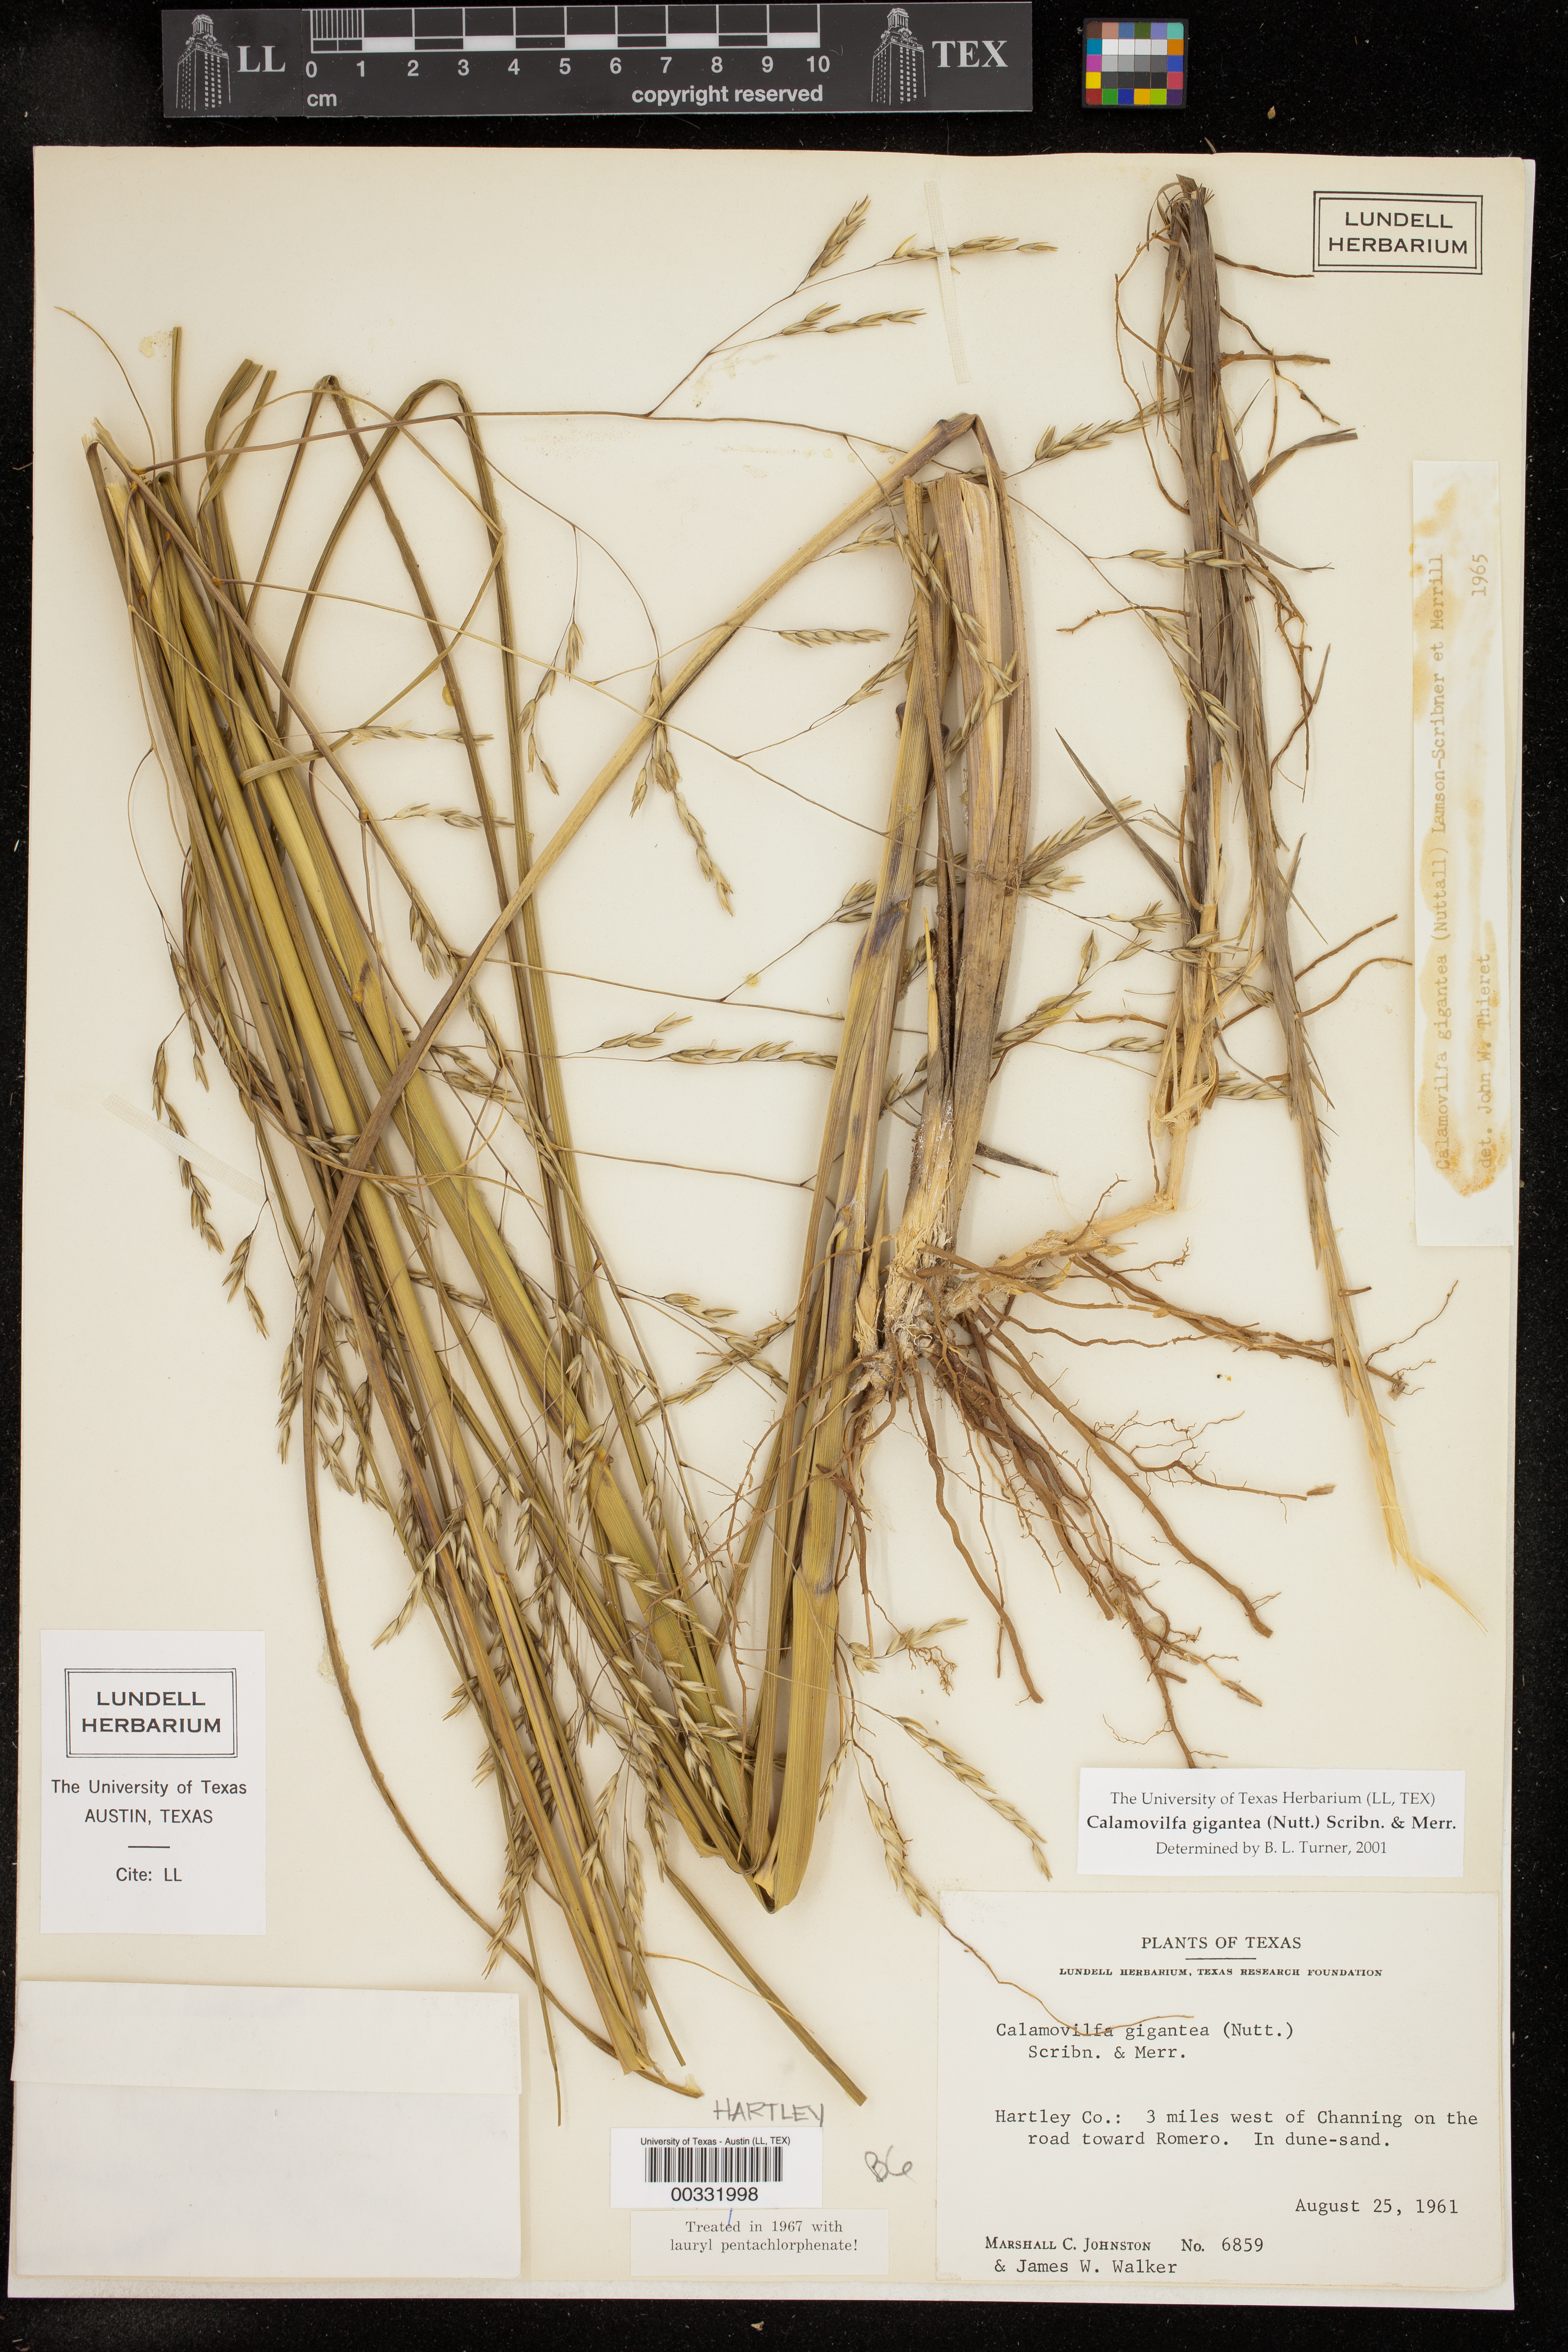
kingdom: Plantae
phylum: Tracheophyta
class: Liliopsida
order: Poales
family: Poaceae
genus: Sporobolus
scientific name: Sporobolus arenicola
